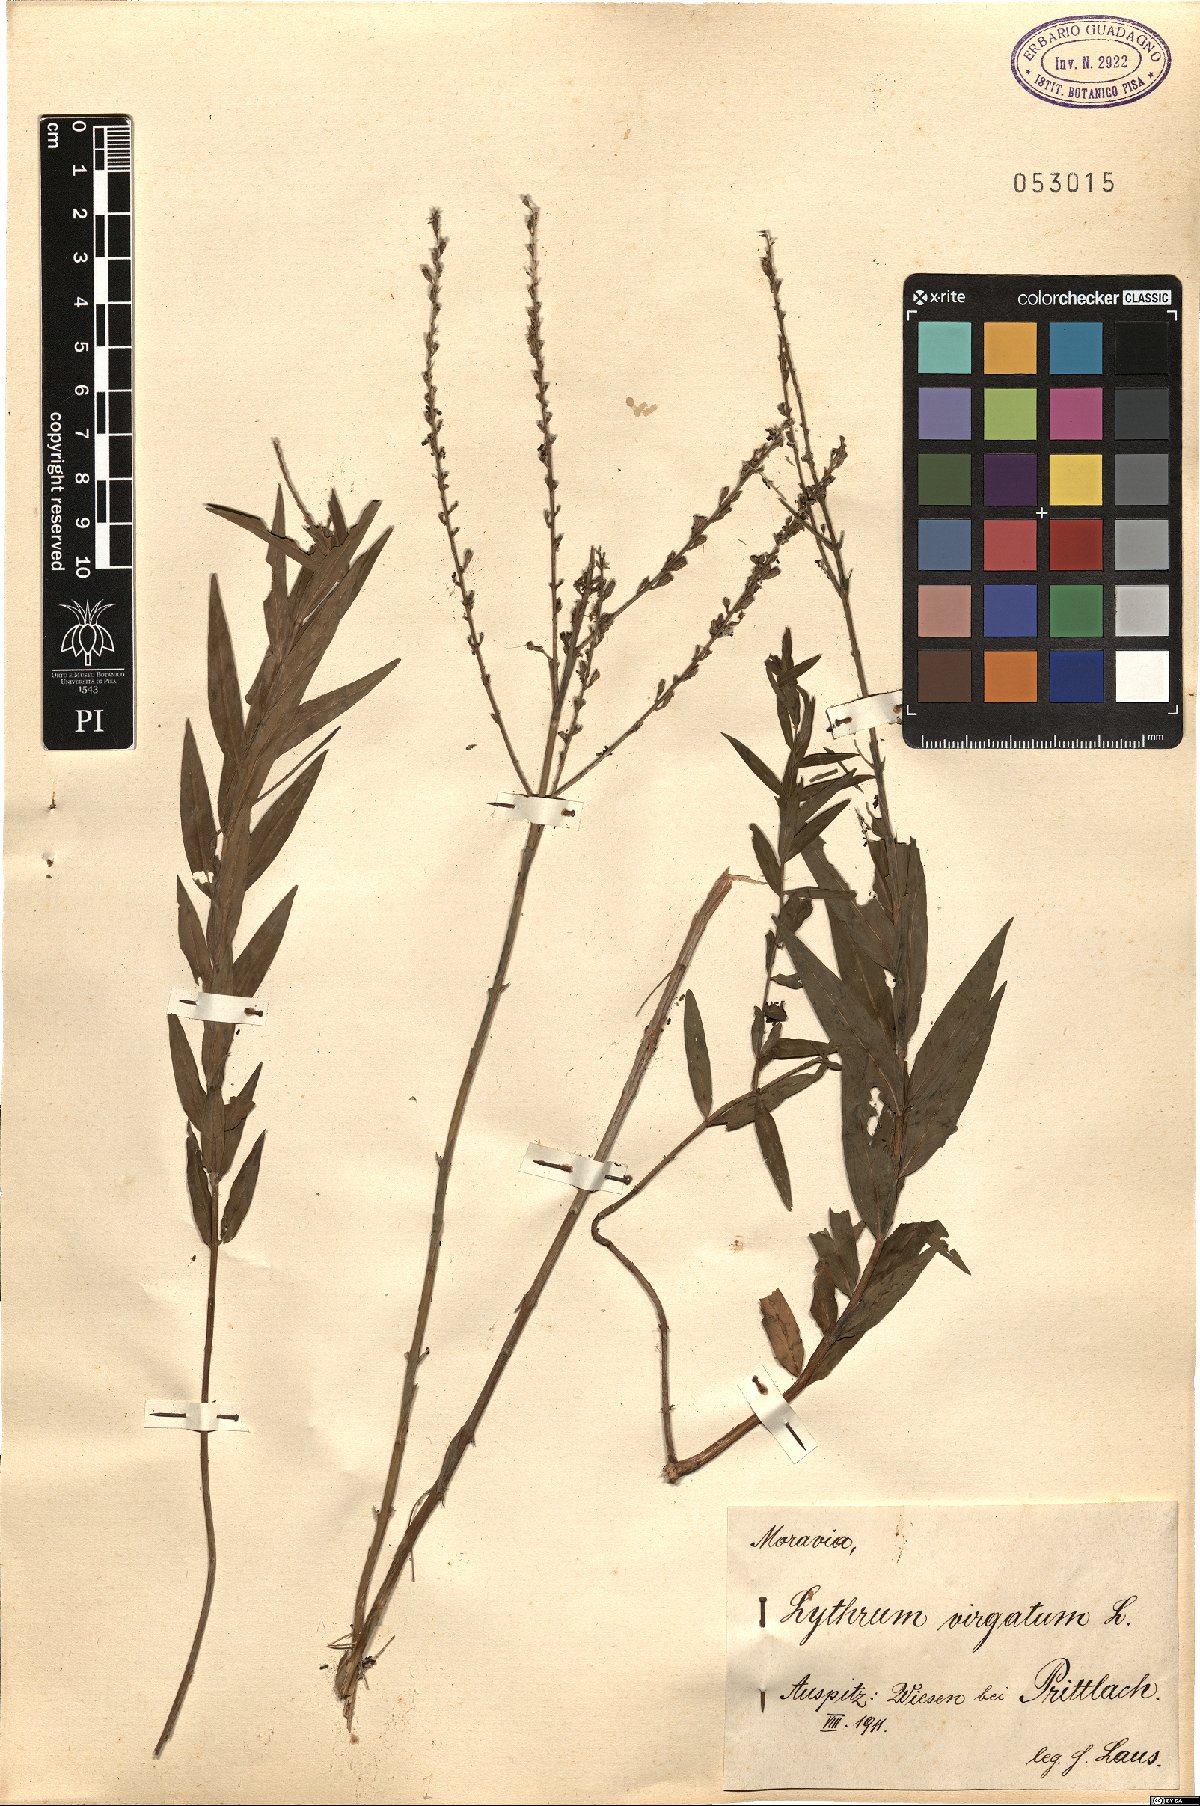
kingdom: Plantae
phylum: Tracheophyta
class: Magnoliopsida
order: Myrtales
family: Lythraceae
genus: Lythrum
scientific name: Lythrum virgatum
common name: European wand loosestrife
